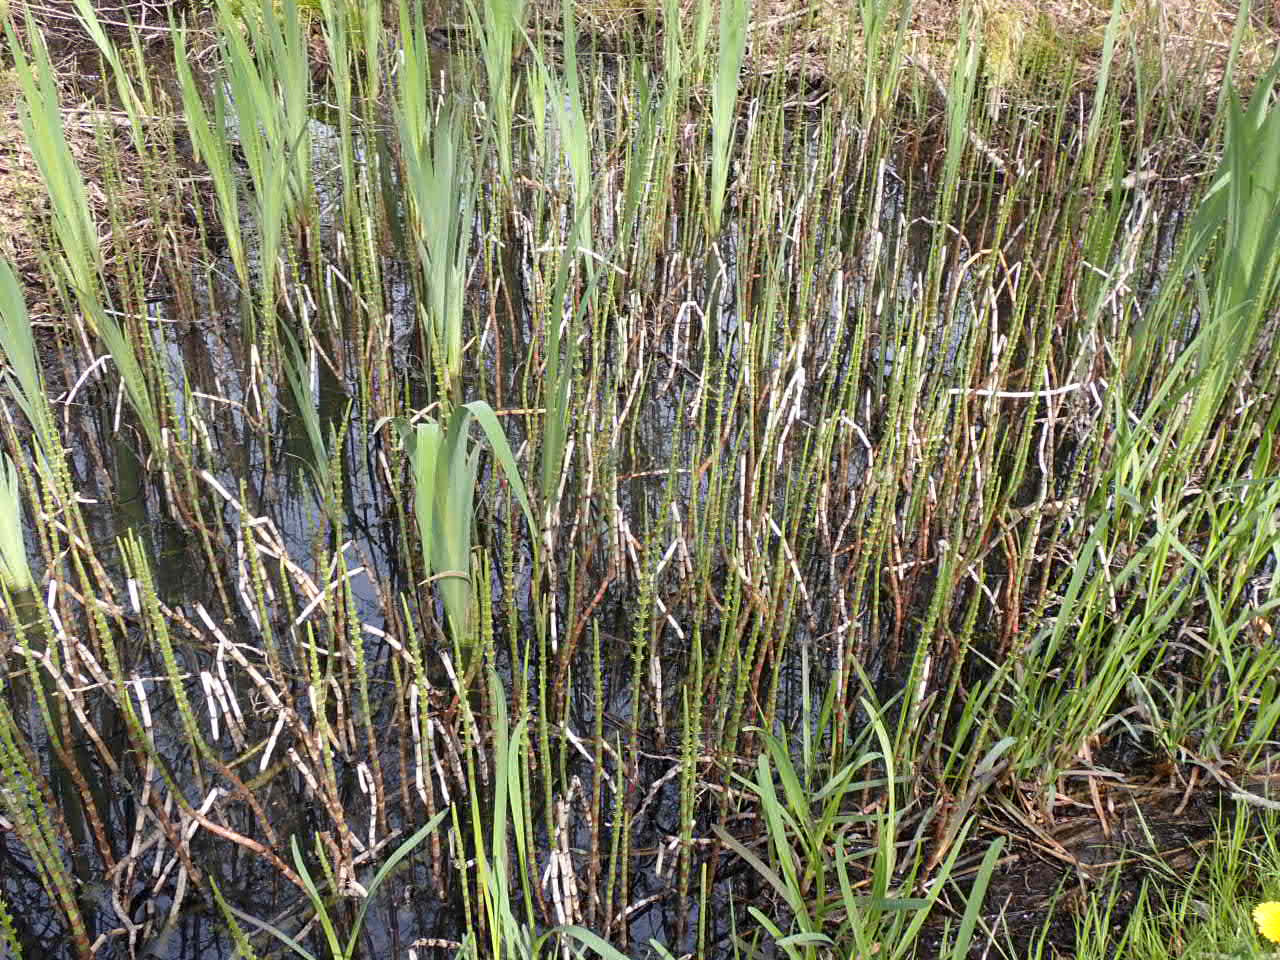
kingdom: Plantae
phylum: Tracheophyta
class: Polypodiopsida
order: Equisetales
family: Equisetaceae
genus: Equisetum
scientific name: Equisetum fluviatile
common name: Dynd-padderok
